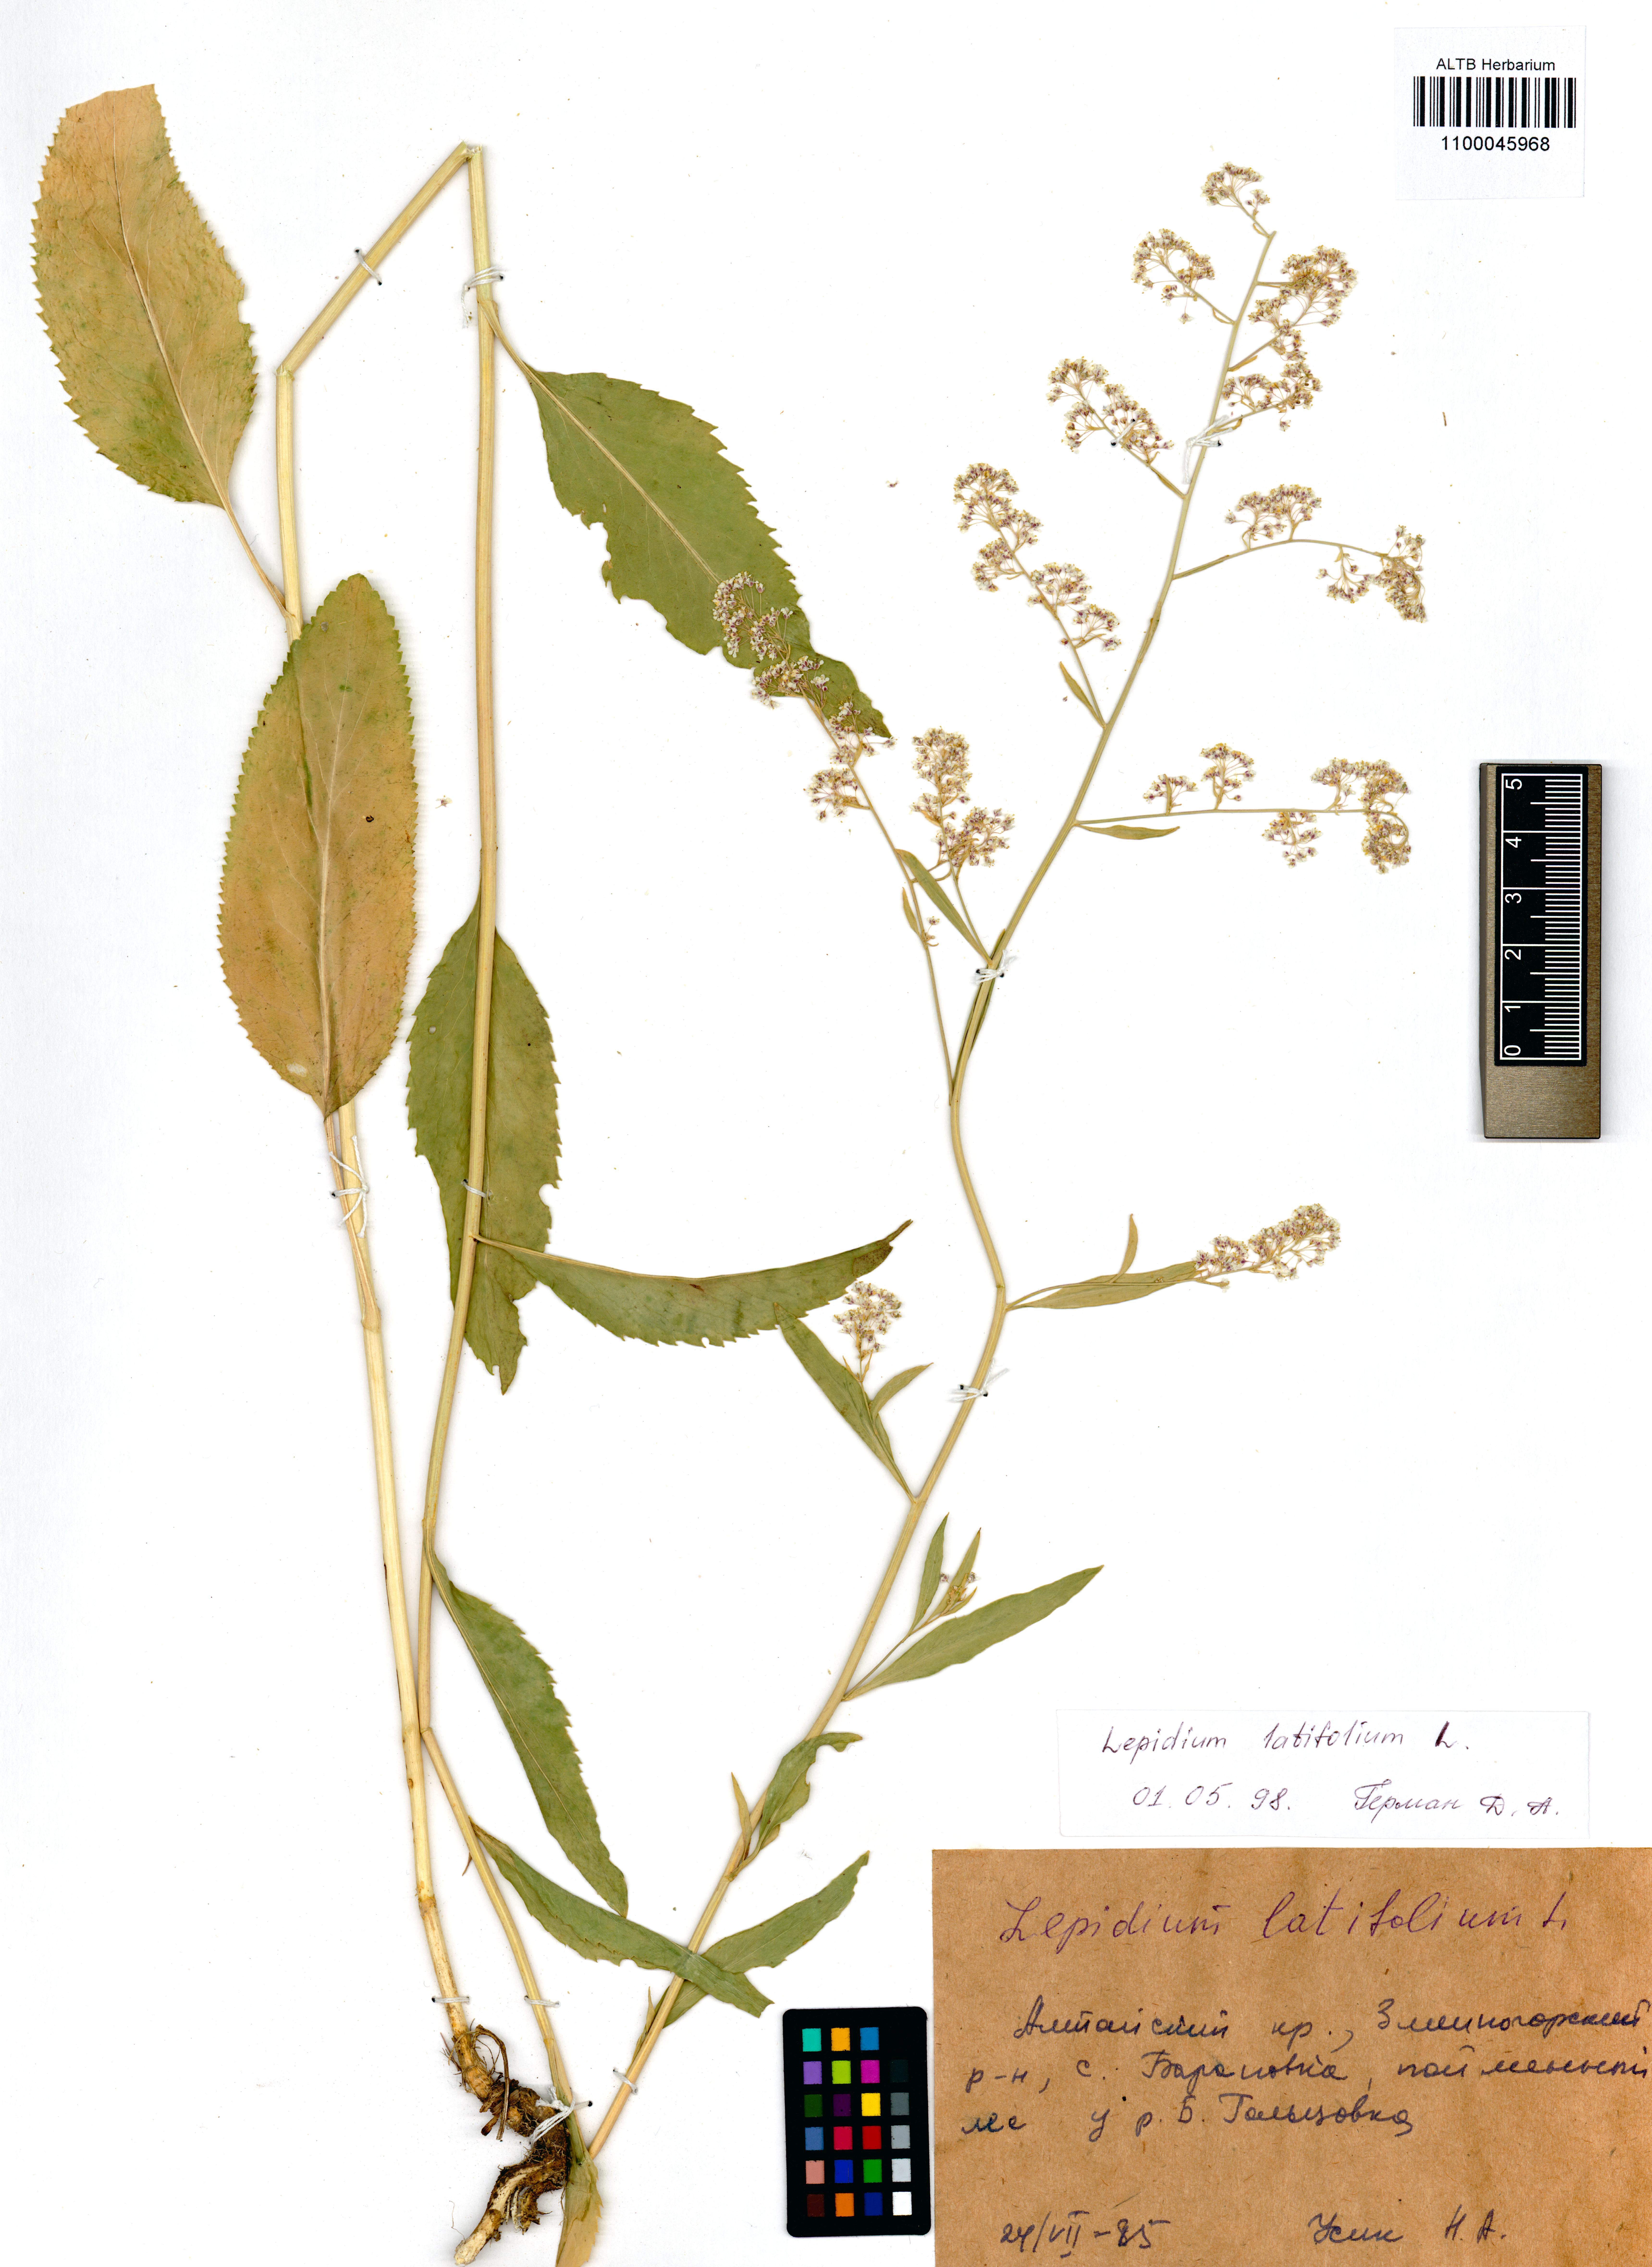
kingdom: Plantae
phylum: Tracheophyta
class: Magnoliopsida
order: Brassicales
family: Brassicaceae
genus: Lepidium
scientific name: Lepidium latifolium
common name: Dittander
